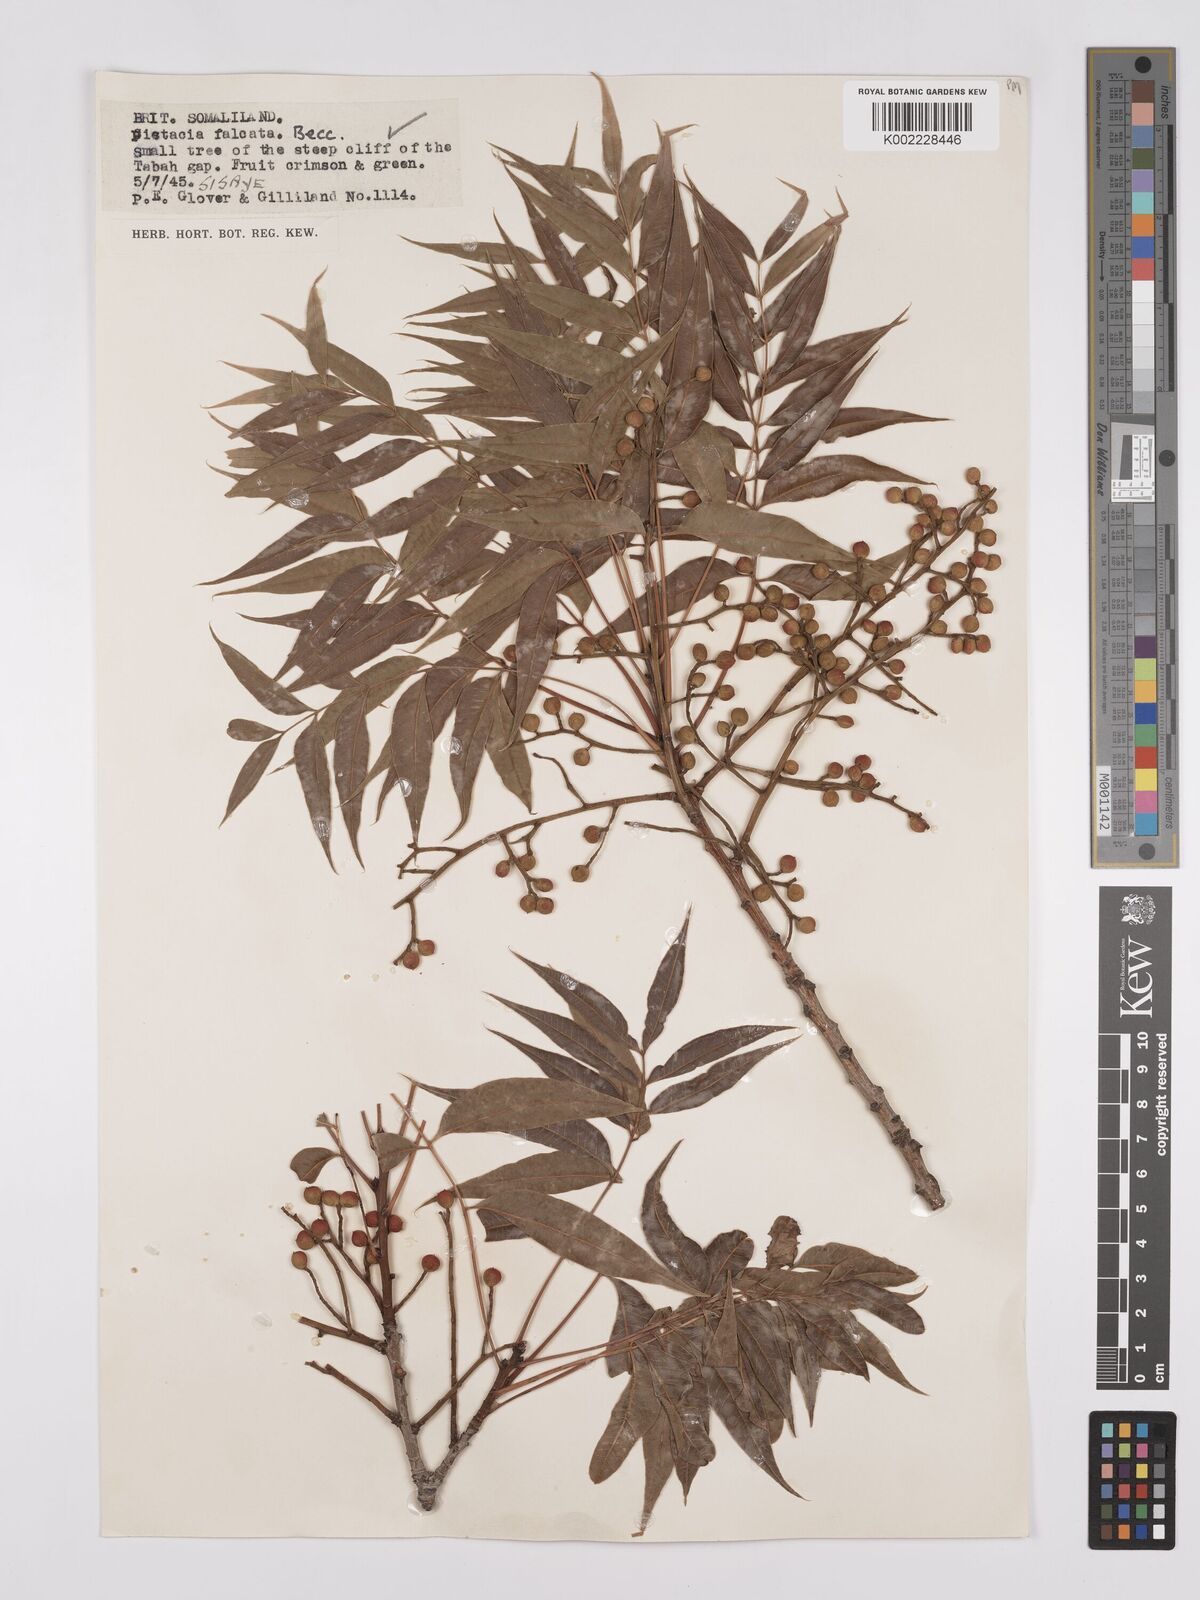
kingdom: Plantae
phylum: Tracheophyta
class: Magnoliopsida
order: Sapindales
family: Anacardiaceae
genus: Pistacia
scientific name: Pistacia falcata
